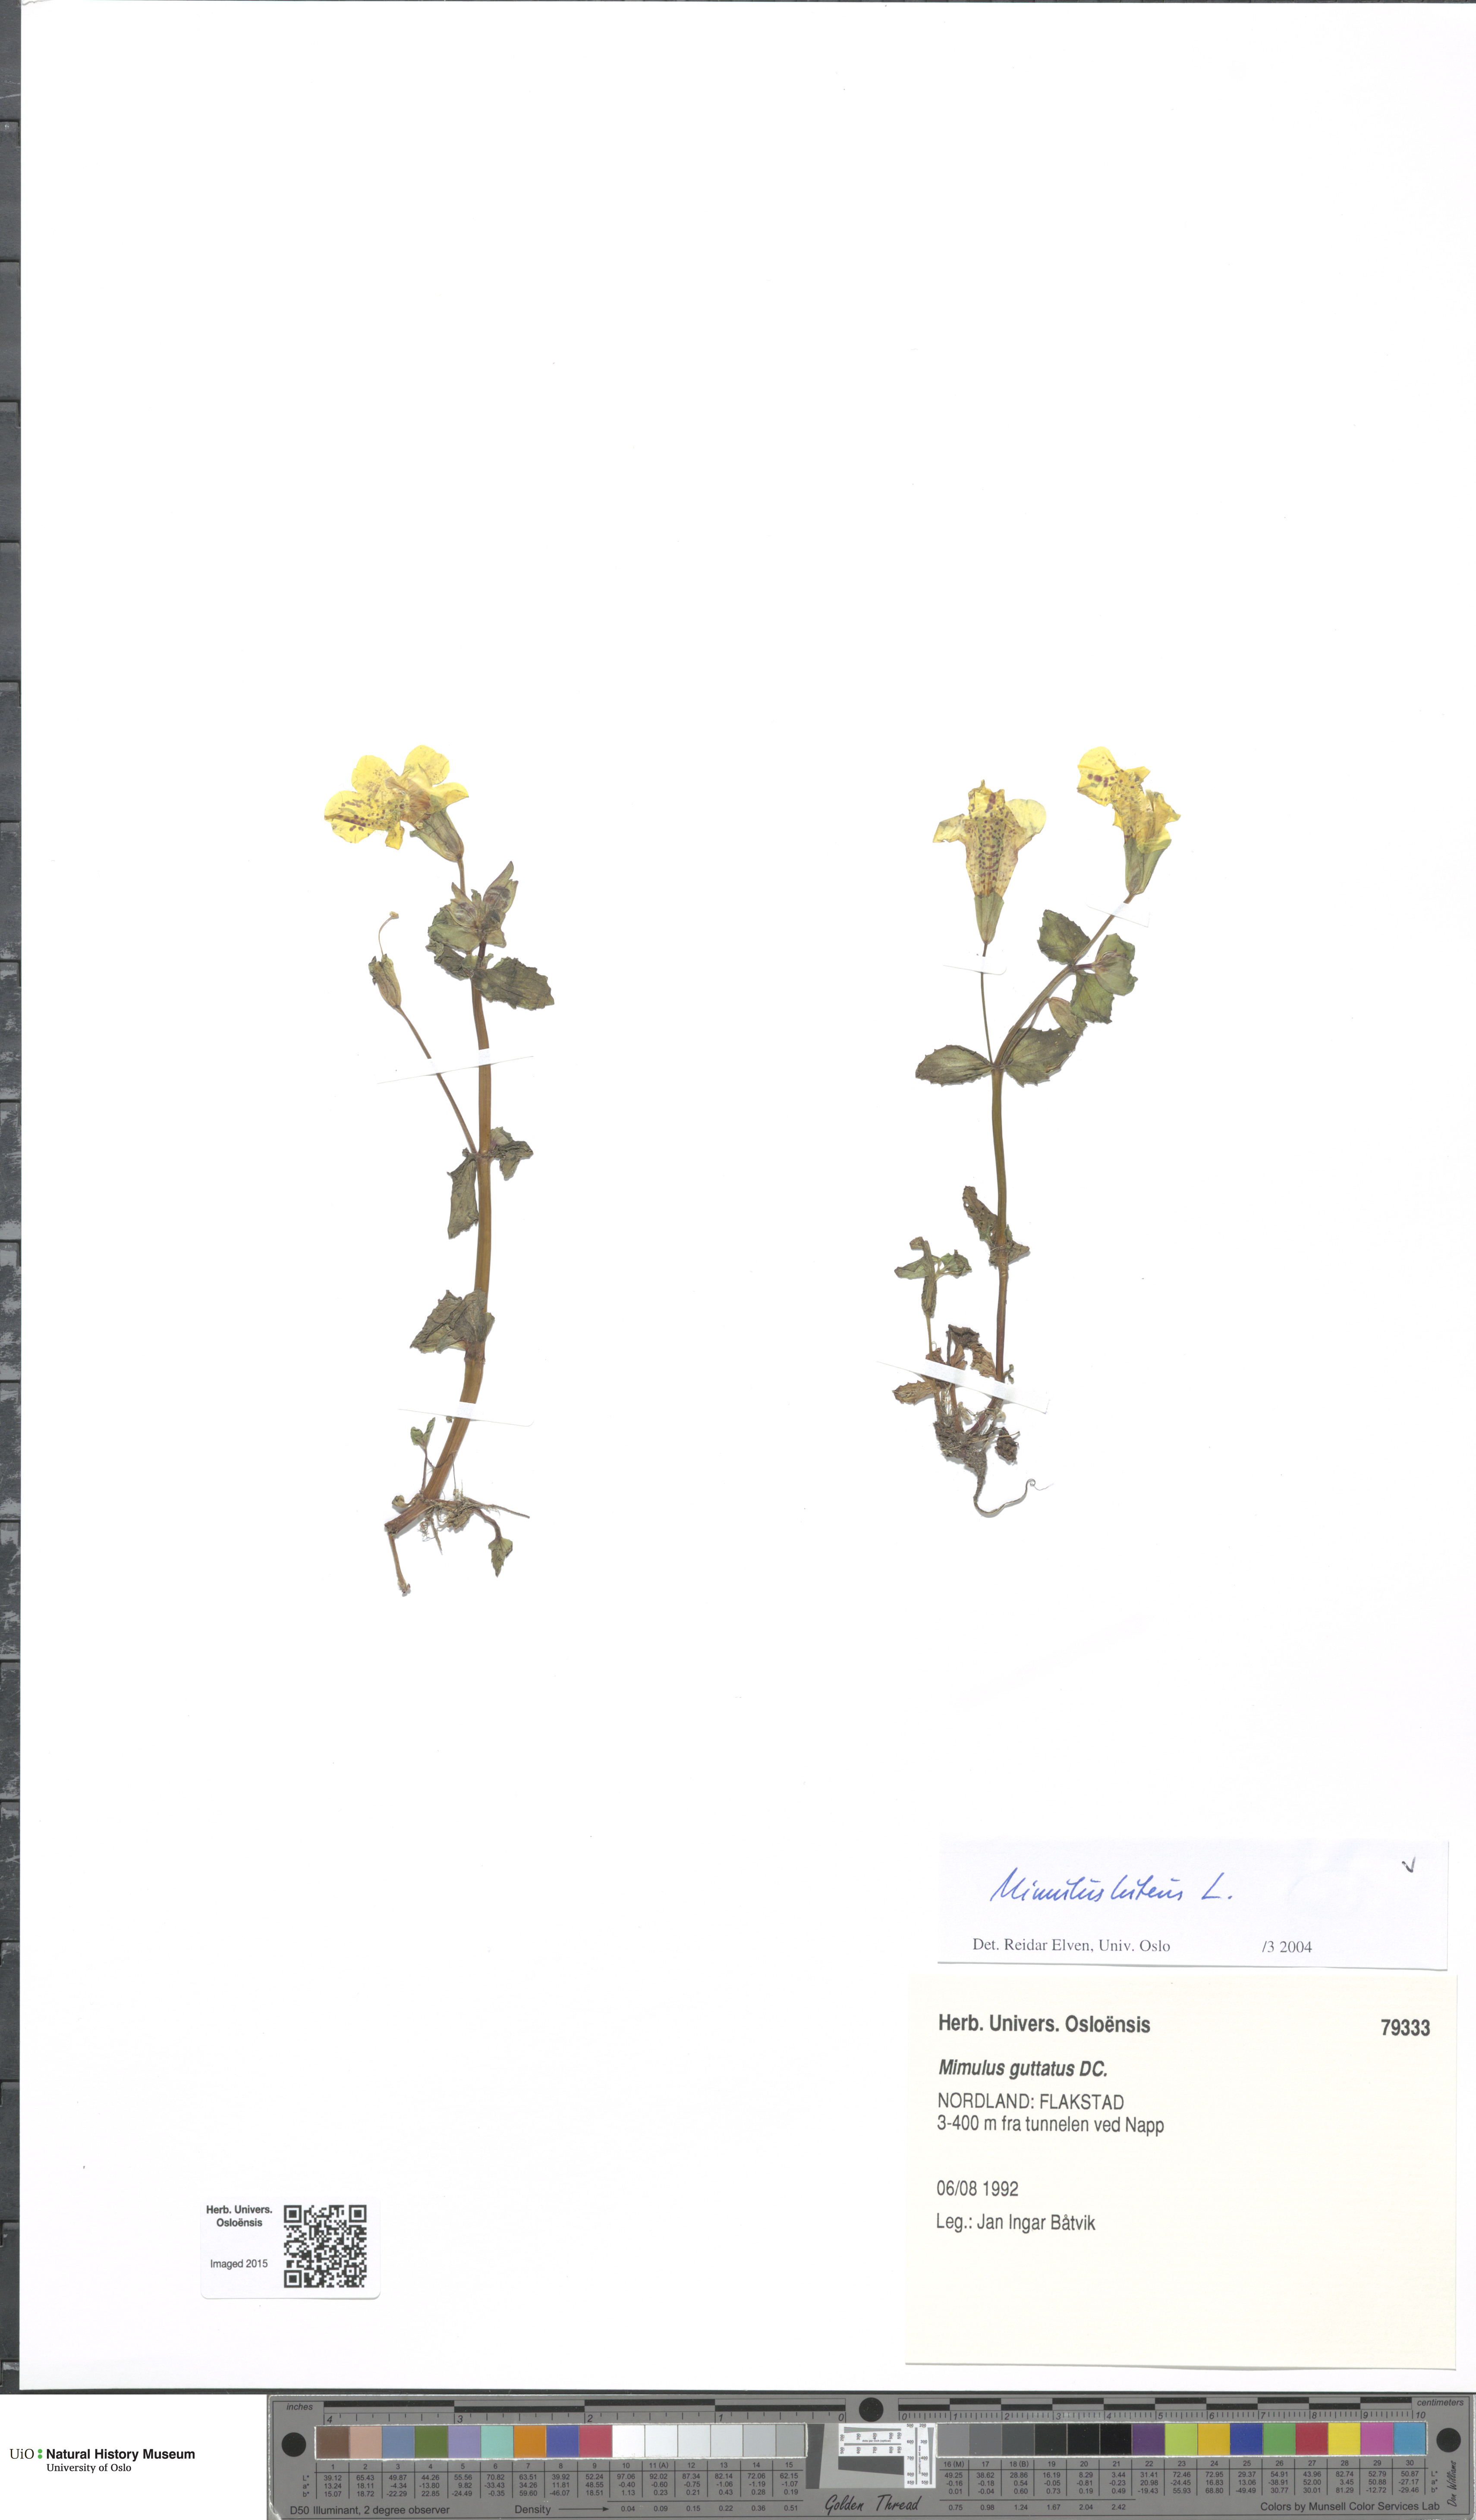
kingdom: Plantae
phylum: Tracheophyta
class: Magnoliopsida
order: Lamiales
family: Phrymaceae
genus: Erythranthe
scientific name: Erythranthe lutea
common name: Yellow monkey-flower
